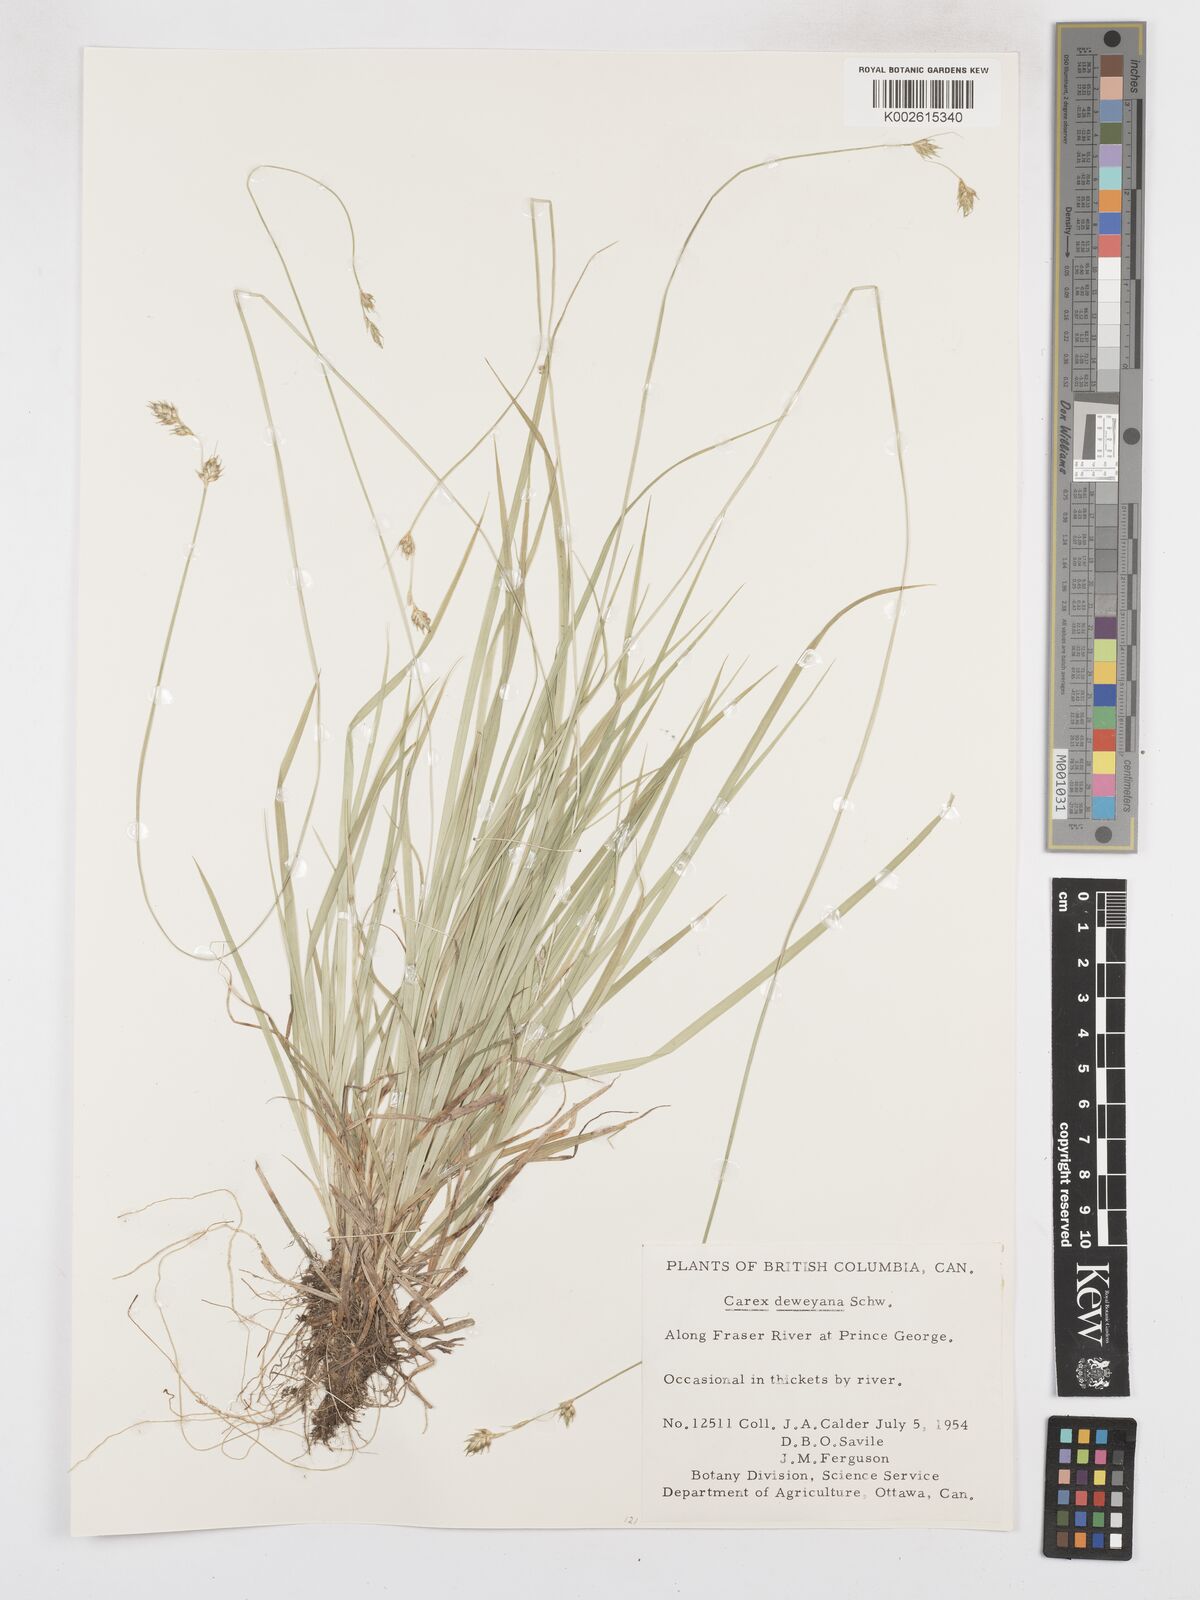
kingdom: Plantae
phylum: Tracheophyta
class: Liliopsida
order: Poales
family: Cyperaceae
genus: Carex
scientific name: Carex deweyana
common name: Dewey's sedge
